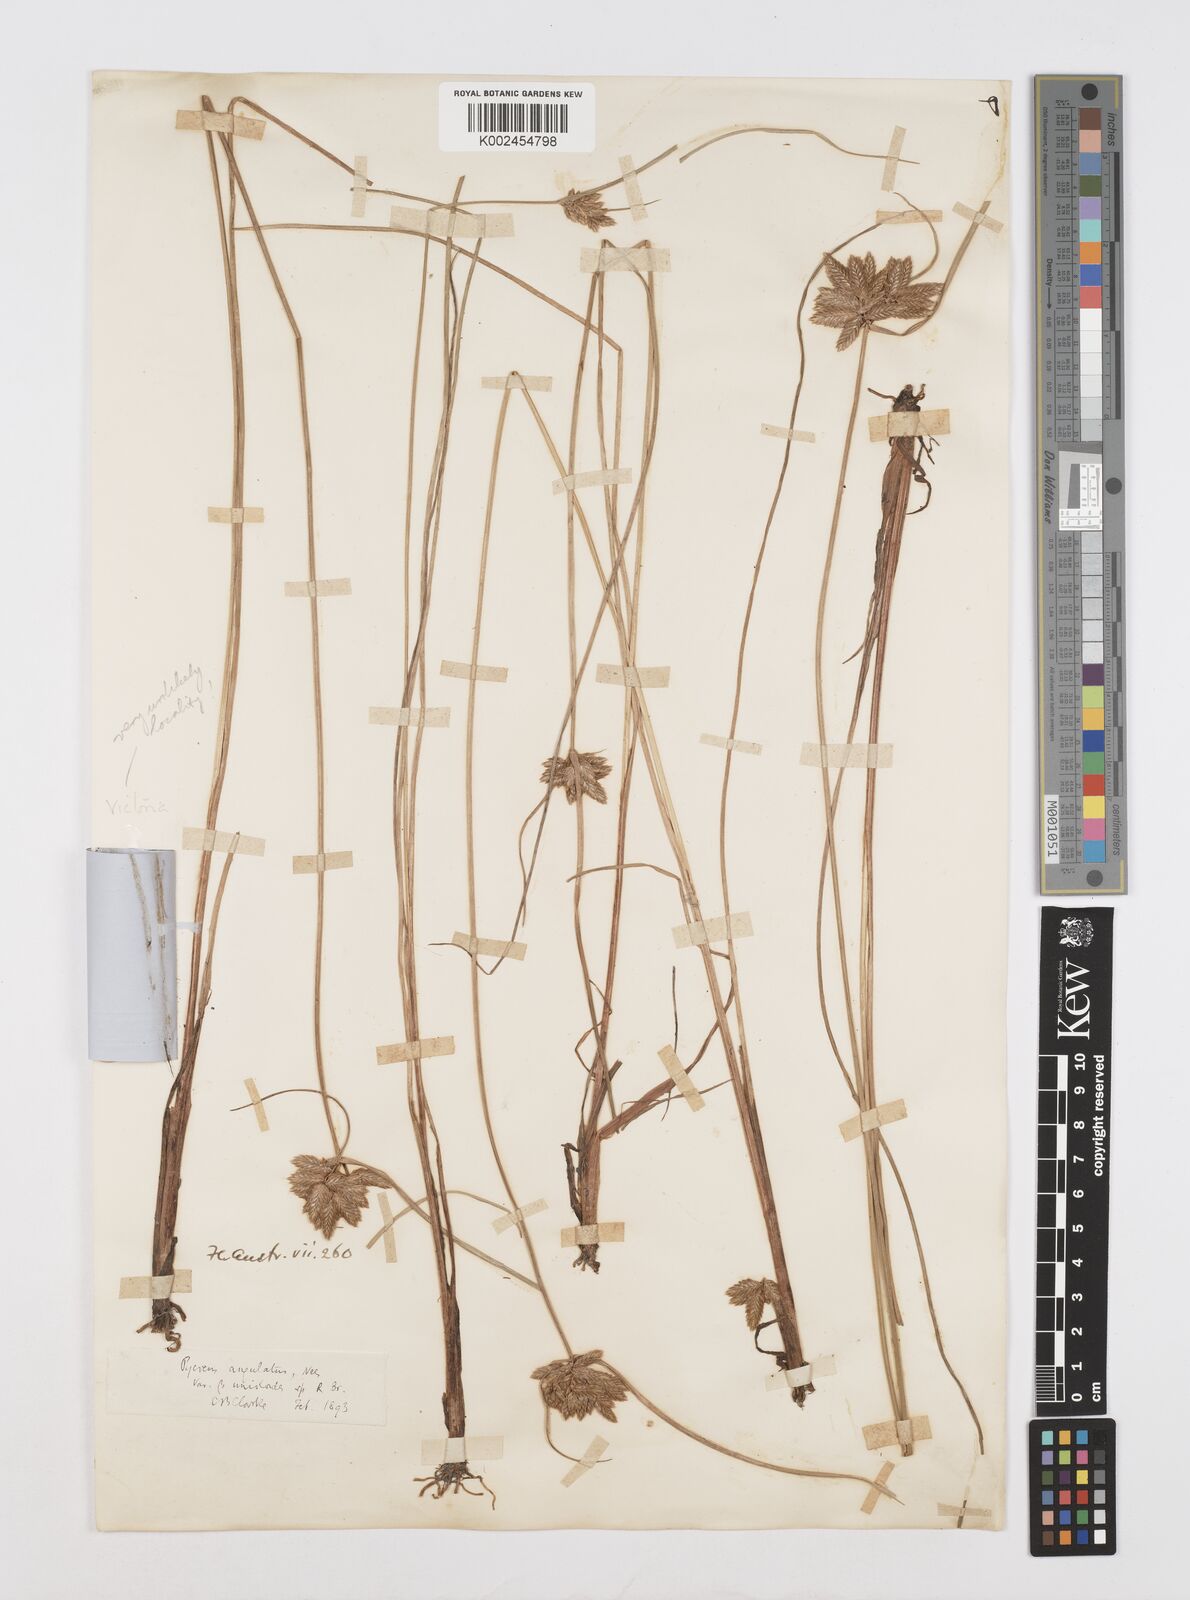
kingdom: Plantae
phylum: Tracheophyta
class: Liliopsida
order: Poales
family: Cyperaceae
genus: Cyperus
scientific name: Cyperus unioloides
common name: Uniola flatsedge
